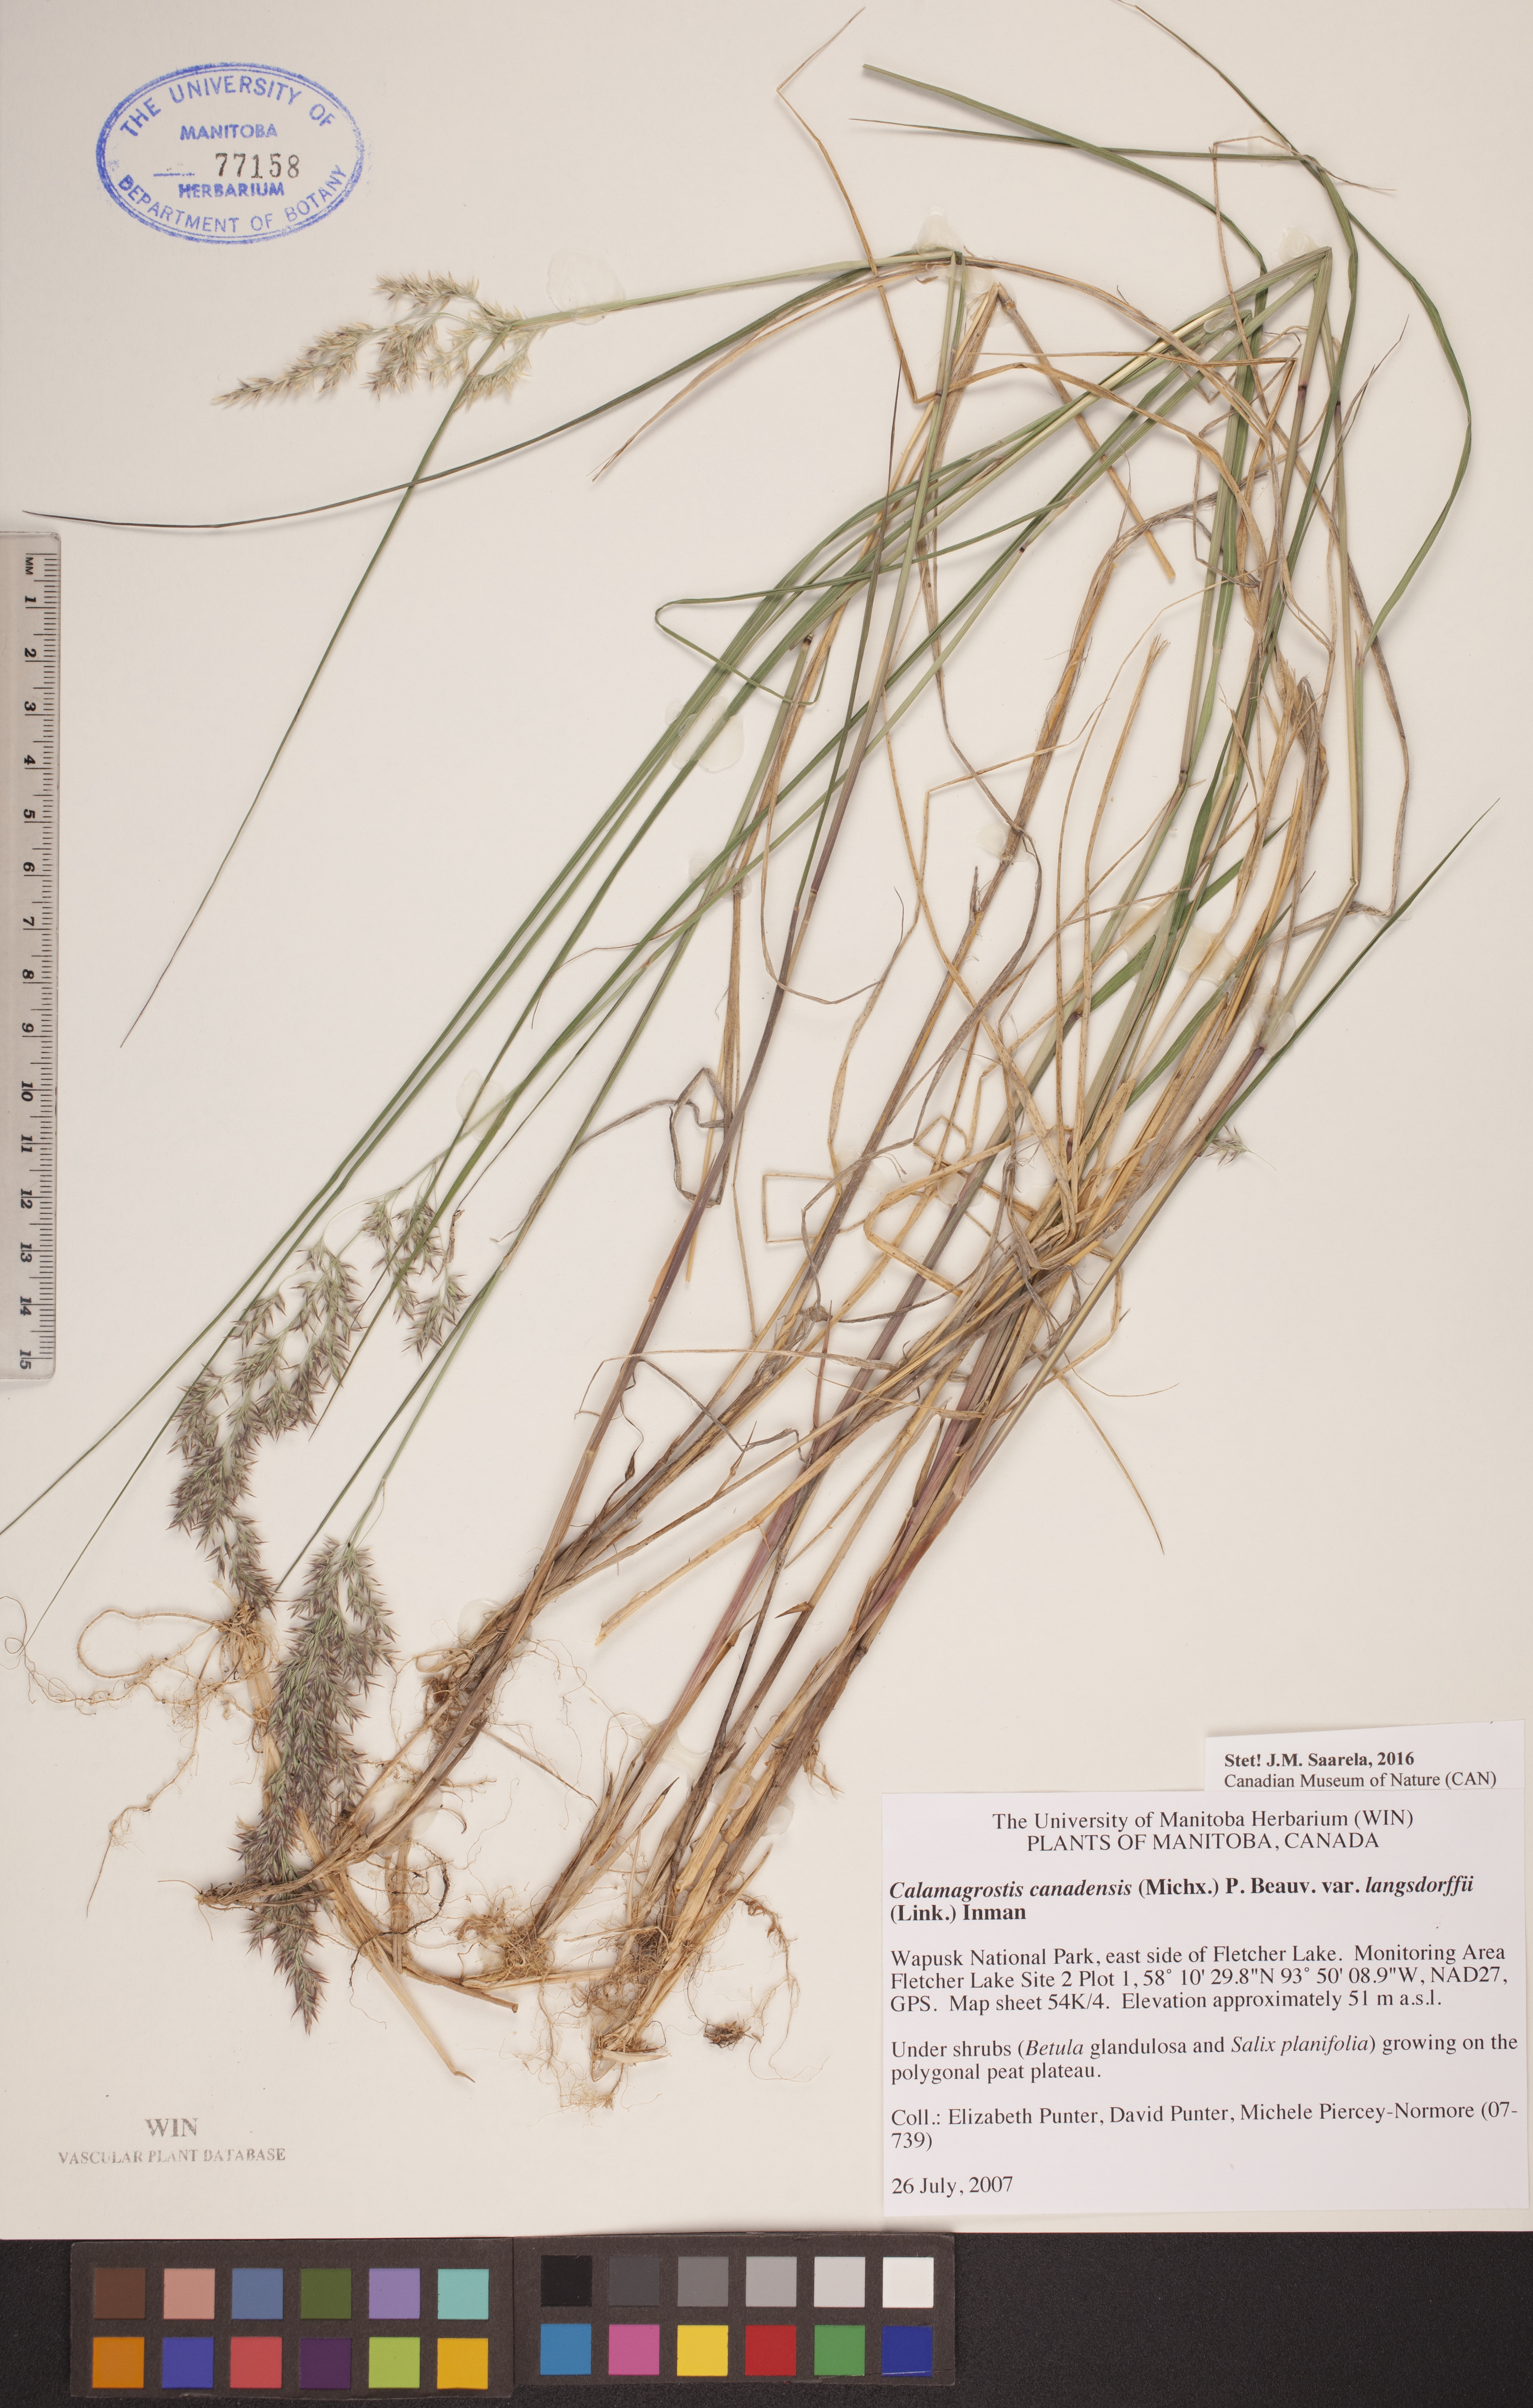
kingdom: Plantae
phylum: Tracheophyta
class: Liliopsida
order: Poales
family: Poaceae
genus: Calamagrostis
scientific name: Calamagrostis purpurea
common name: Scandinavian small-reed
